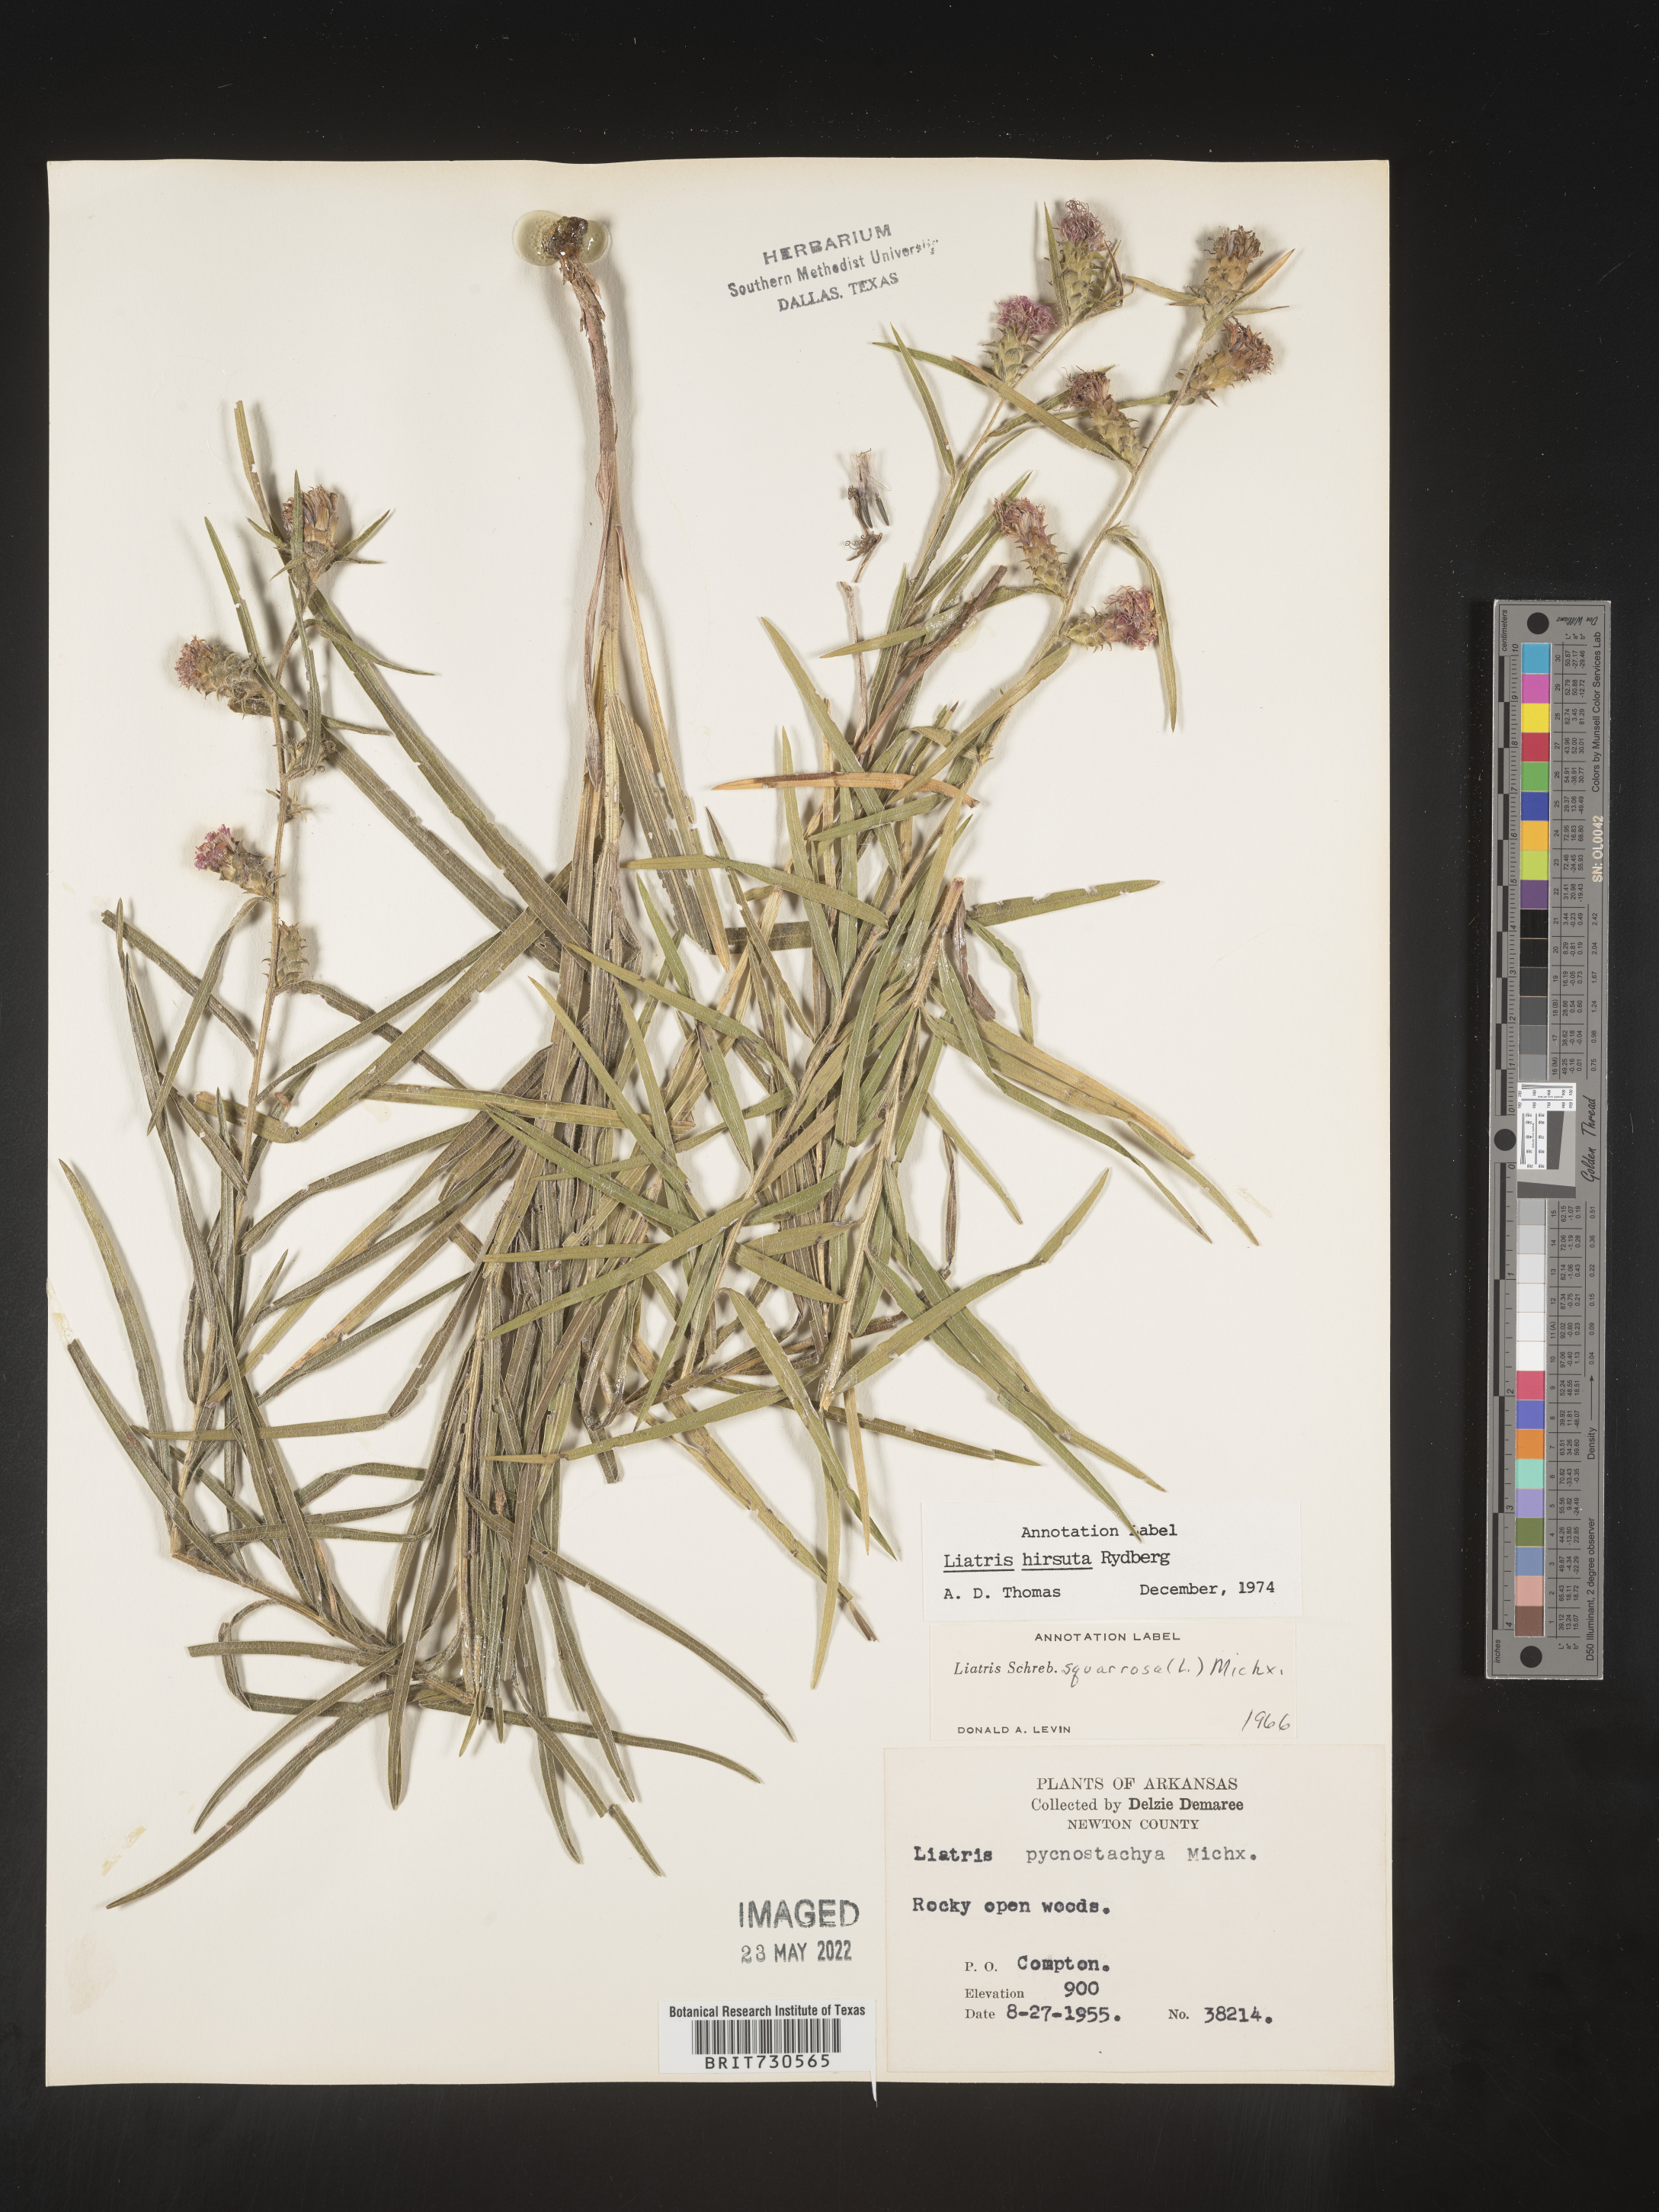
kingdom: Plantae
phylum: Tracheophyta
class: Magnoliopsida
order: Asterales
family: Asteraceae
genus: Liatris
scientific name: Liatris hirsuta
